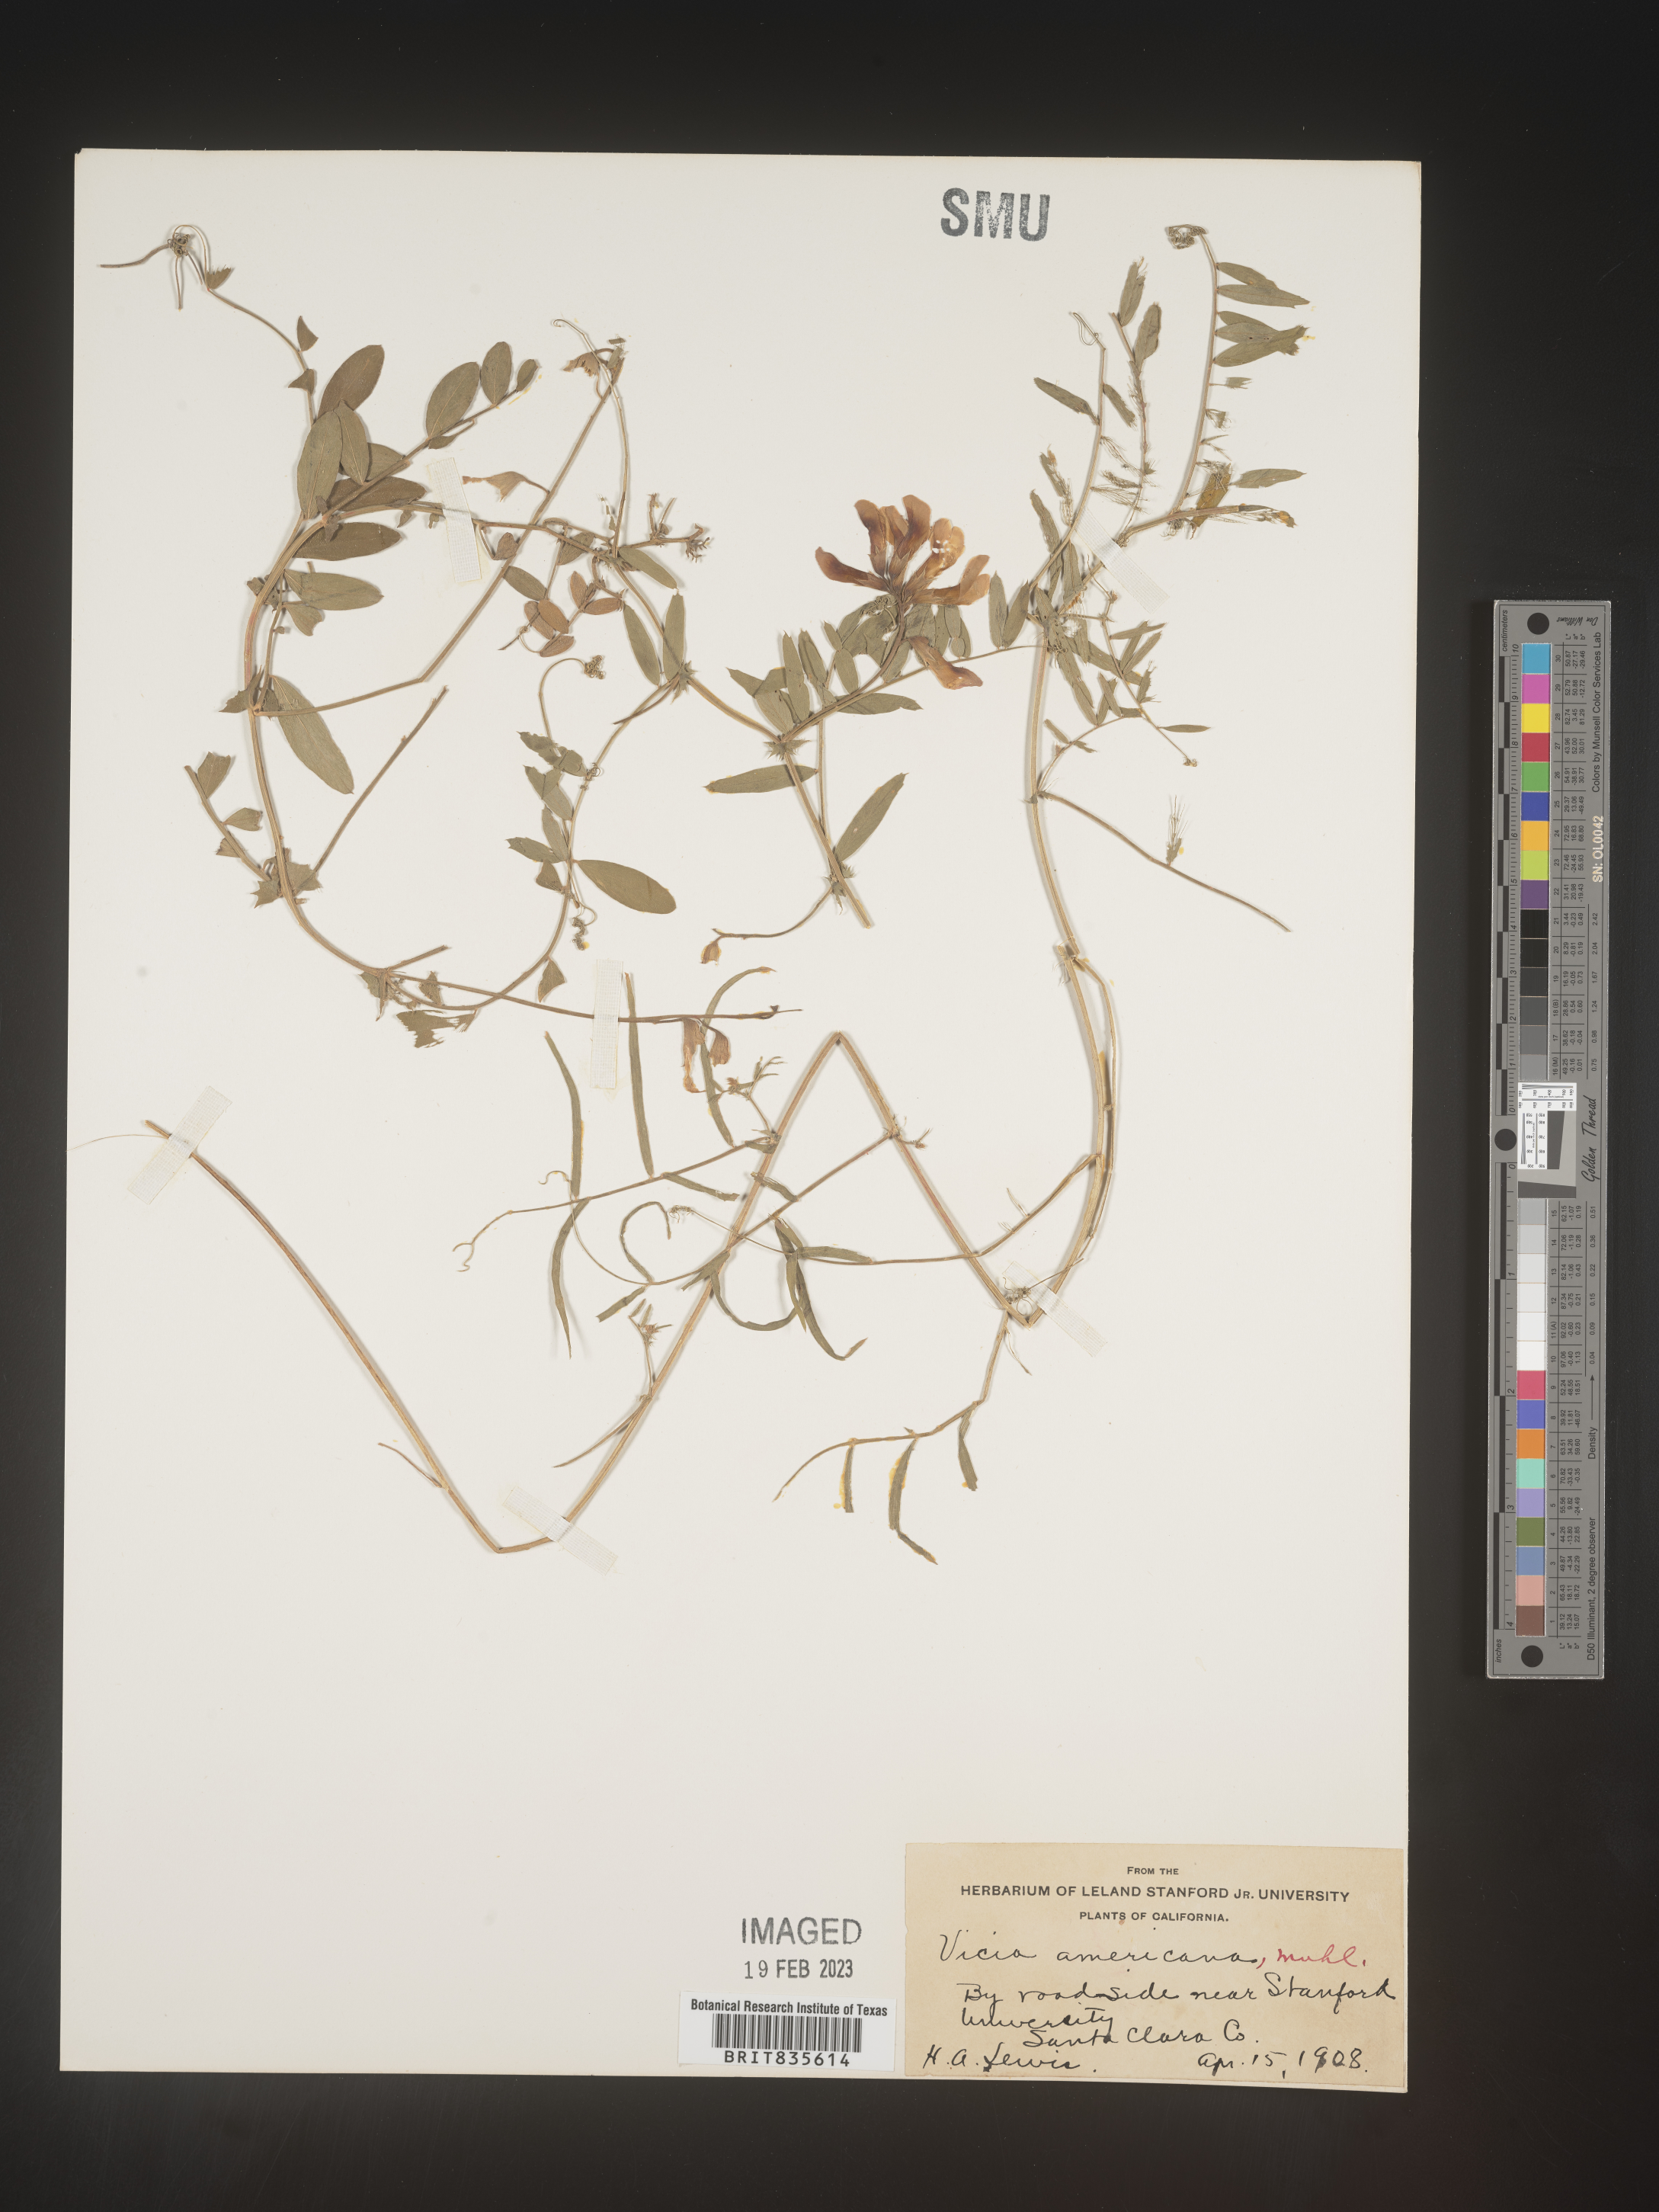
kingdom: Plantae
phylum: Tracheophyta
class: Magnoliopsida
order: Fabales
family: Fabaceae
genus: Vicia
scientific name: Vicia americana
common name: American vetch
